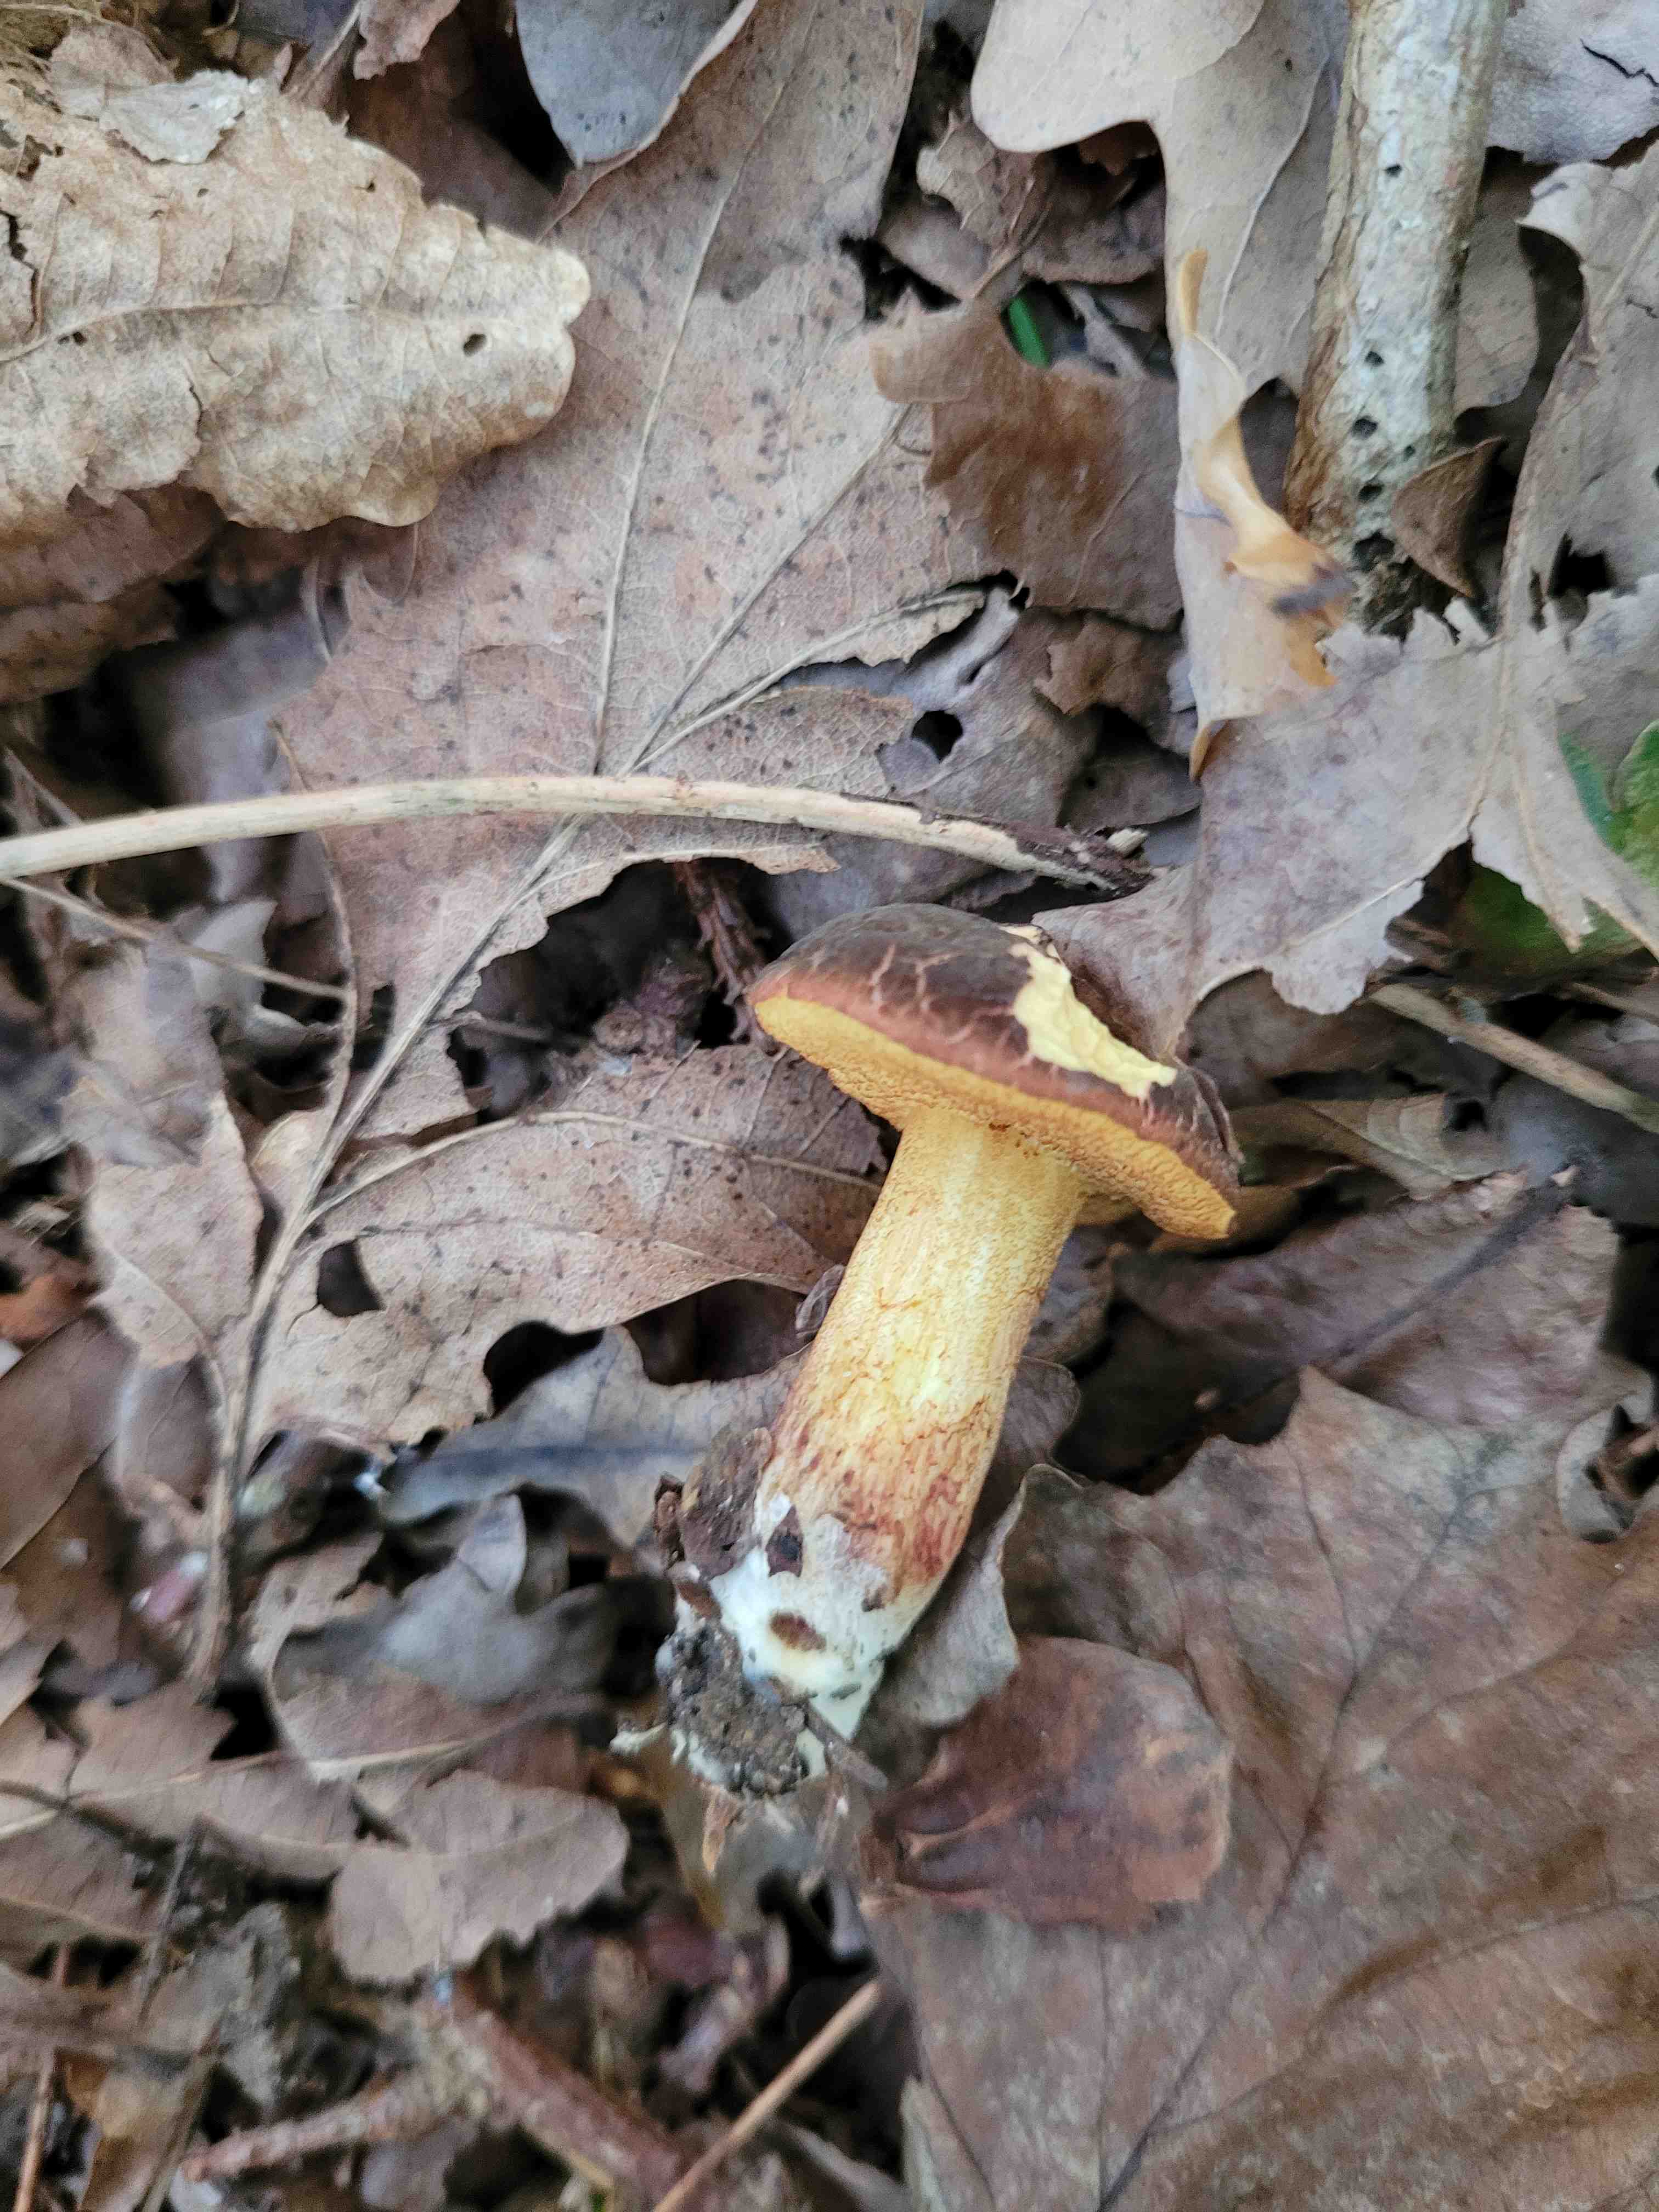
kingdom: Fungi
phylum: Basidiomycota
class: Agaricomycetes
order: Boletales
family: Boletaceae
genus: Xerocomellus
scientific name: Xerocomellus pruinatus
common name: dugget rørhat
